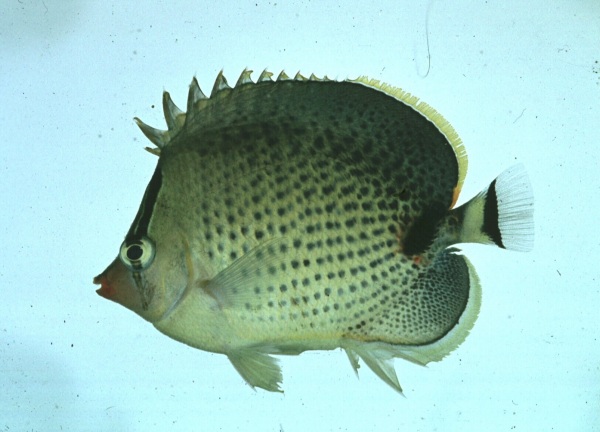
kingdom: Animalia
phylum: Chordata
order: Perciformes
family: Chaetodontidae
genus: Chaetodon
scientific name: Chaetodon guttatissimus
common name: Spotted butterflyfish
